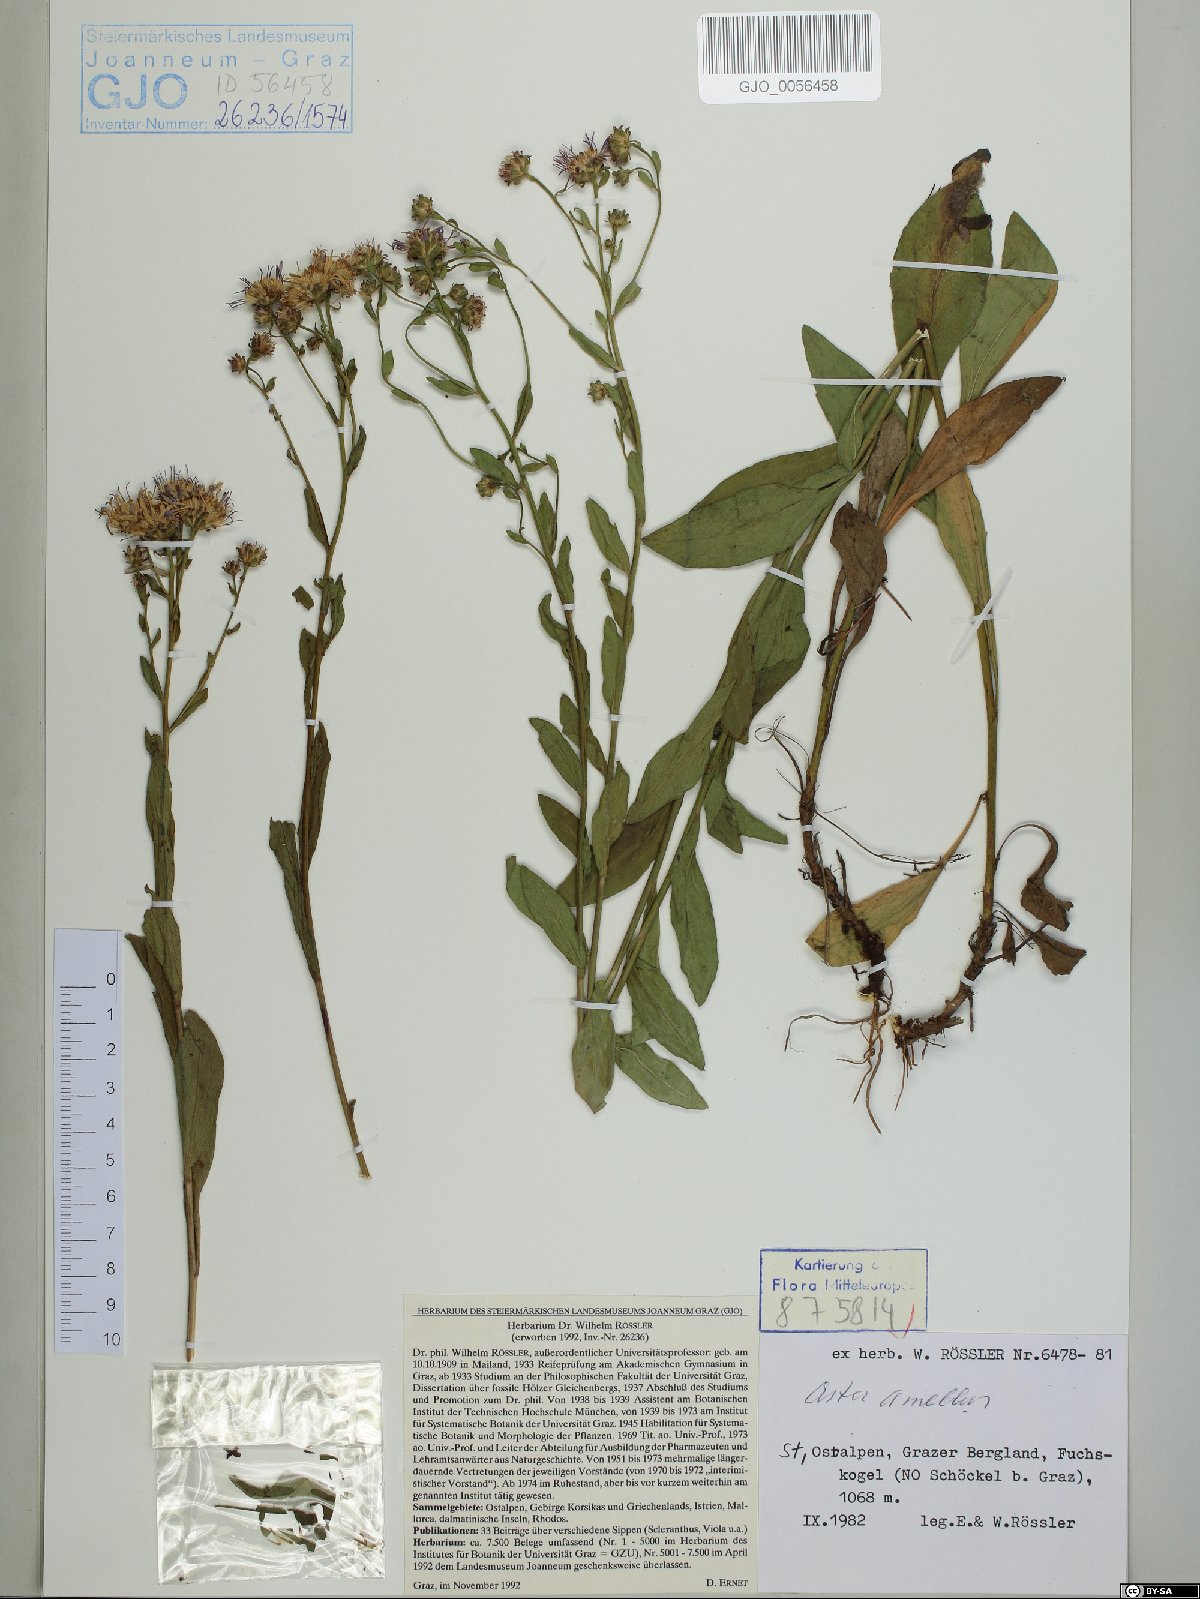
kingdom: Plantae
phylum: Tracheophyta
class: Magnoliopsida
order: Asterales
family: Asteraceae
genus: Aster
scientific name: Aster amellus
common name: European michaelmas daisy
